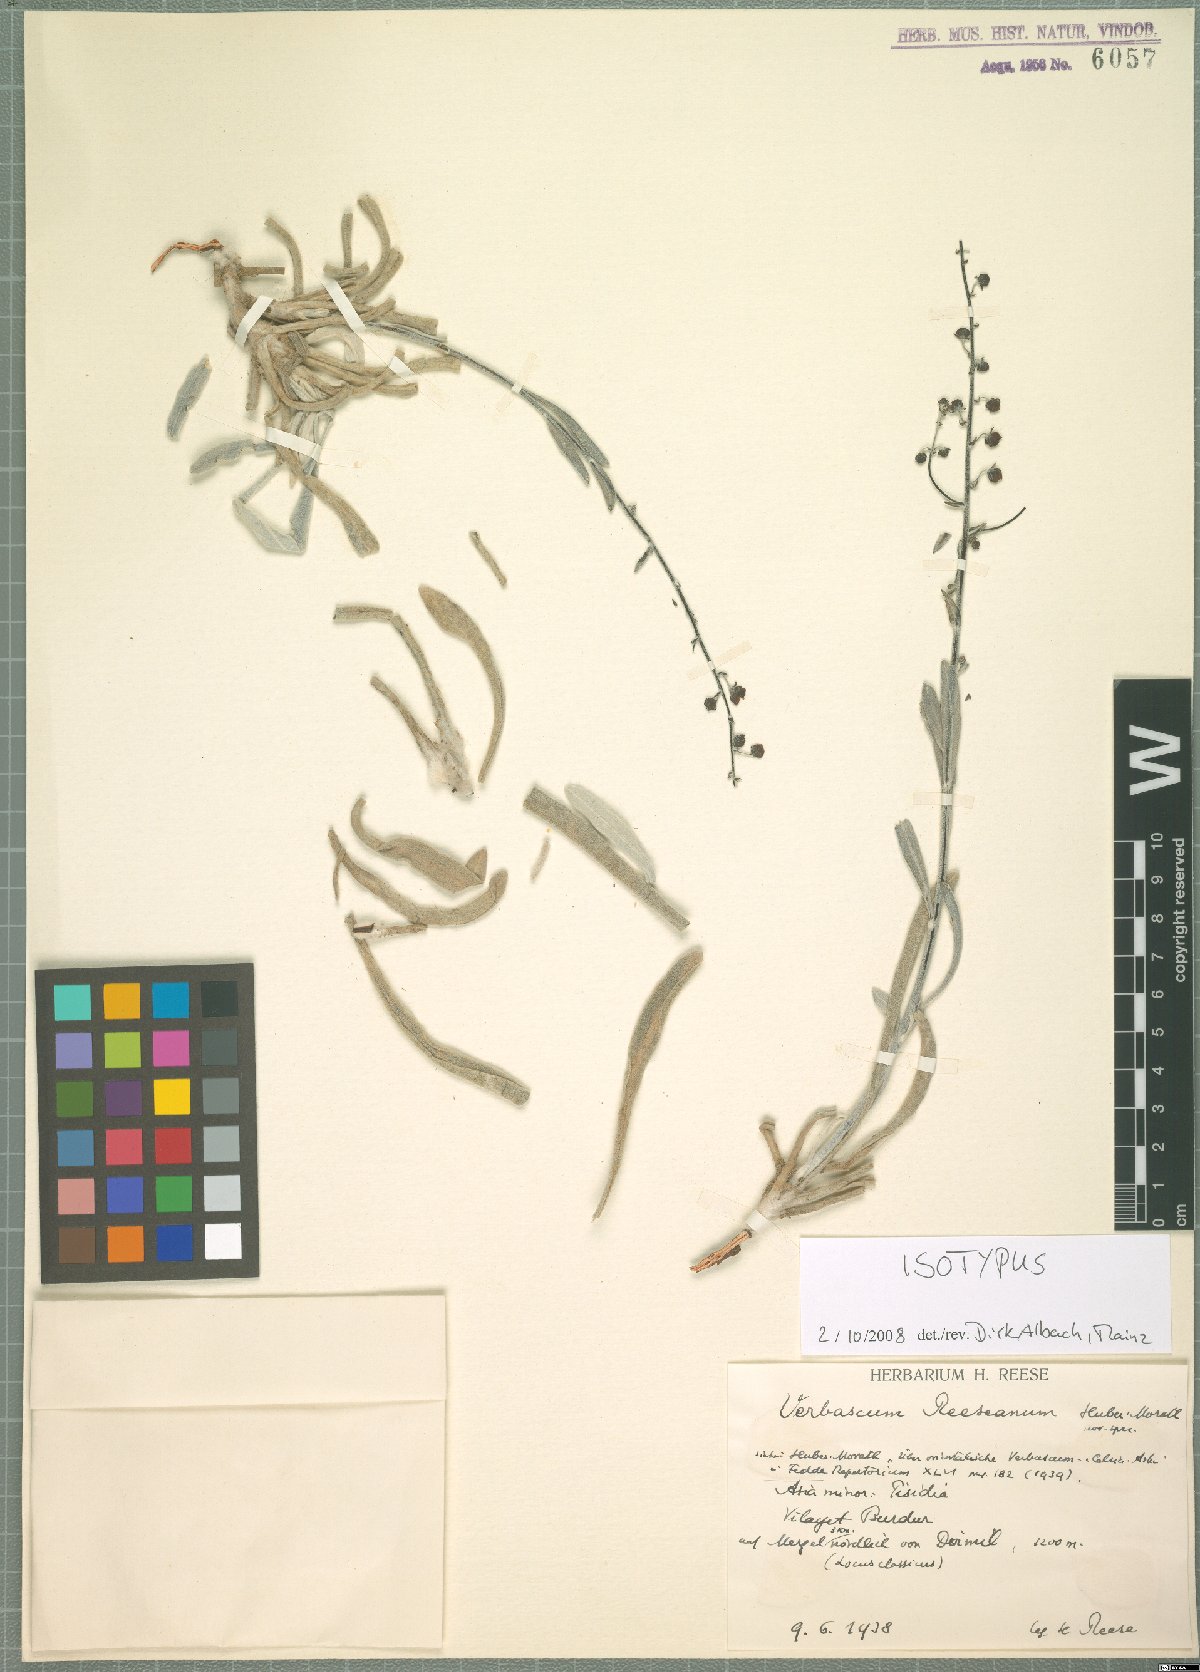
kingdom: Plantae
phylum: Tracheophyta
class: Magnoliopsida
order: Lamiales
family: Scrophulariaceae
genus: Verbascum
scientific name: Verbascum reeseanum
